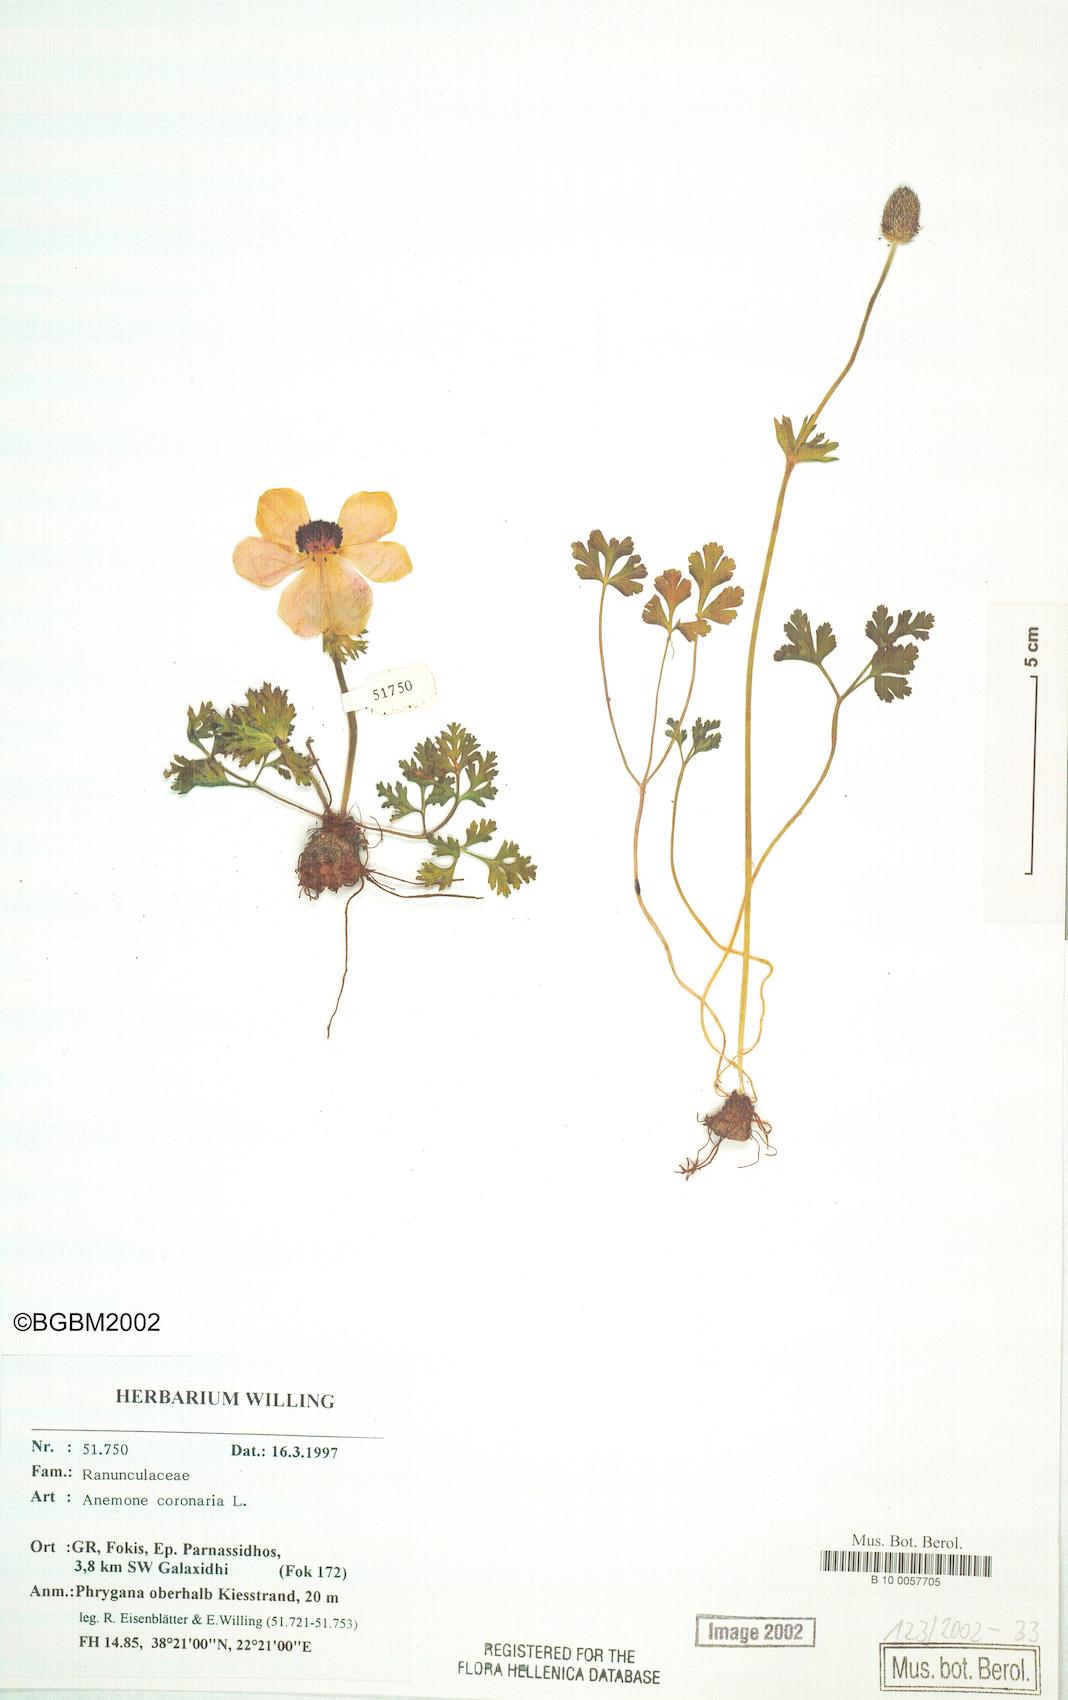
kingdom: Plantae
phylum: Tracheophyta
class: Magnoliopsida
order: Ranunculales
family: Ranunculaceae
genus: Anemone
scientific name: Anemone coronaria
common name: Poppy anemone
